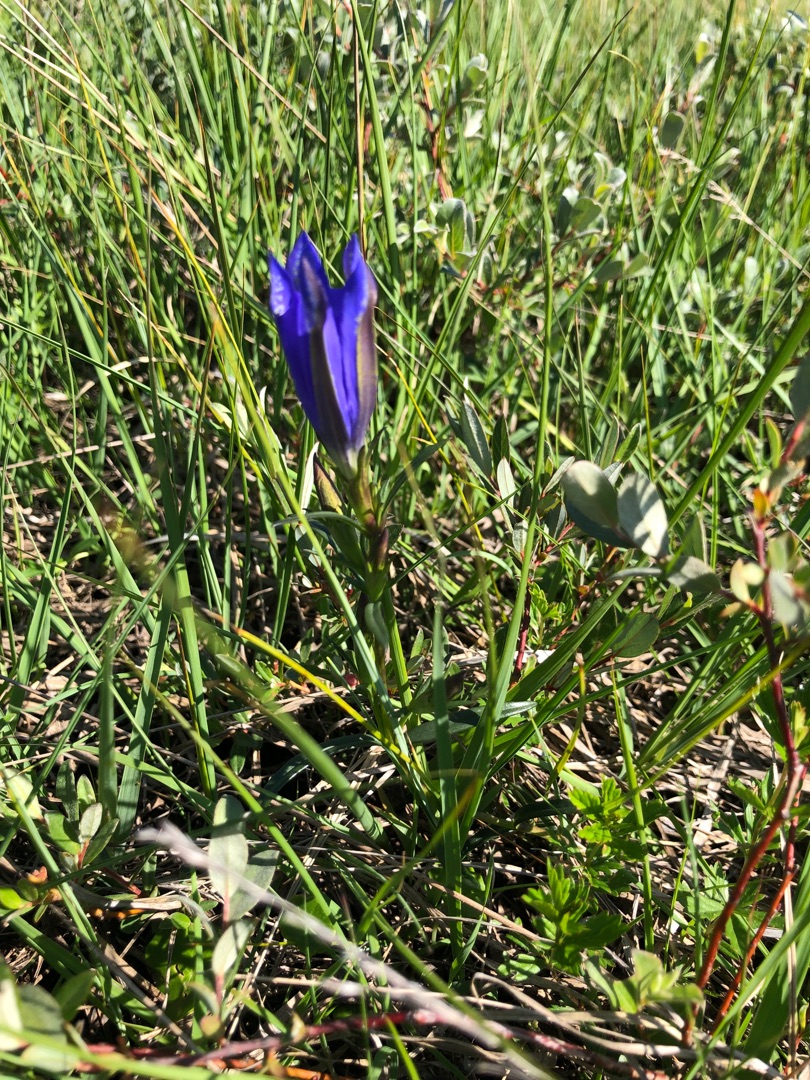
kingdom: Plantae
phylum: Tracheophyta
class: Magnoliopsida
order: Gentianales
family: Gentianaceae
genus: Gentiana
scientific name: Gentiana pneumonanthe
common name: Klokke-ensian
